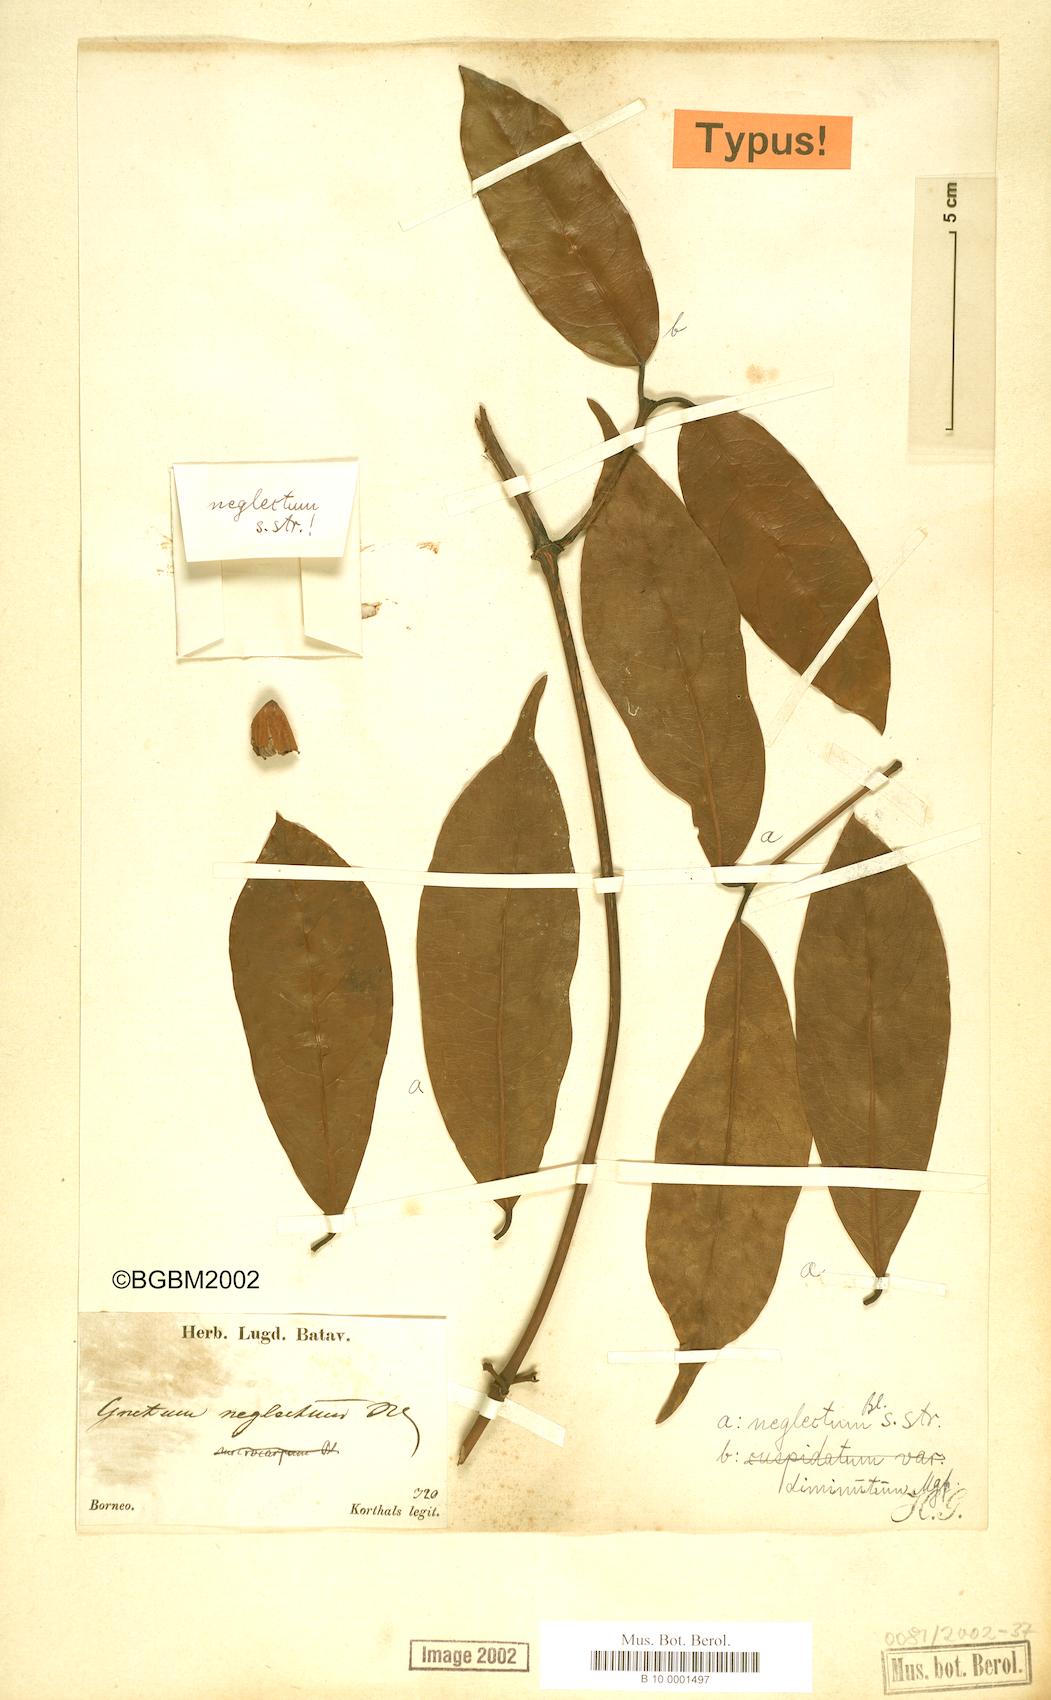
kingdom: Plantae
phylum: Tracheophyta
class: Gnetopsida
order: Gnetales
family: Gnetaceae
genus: Gnetum
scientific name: Gnetum neglectum
